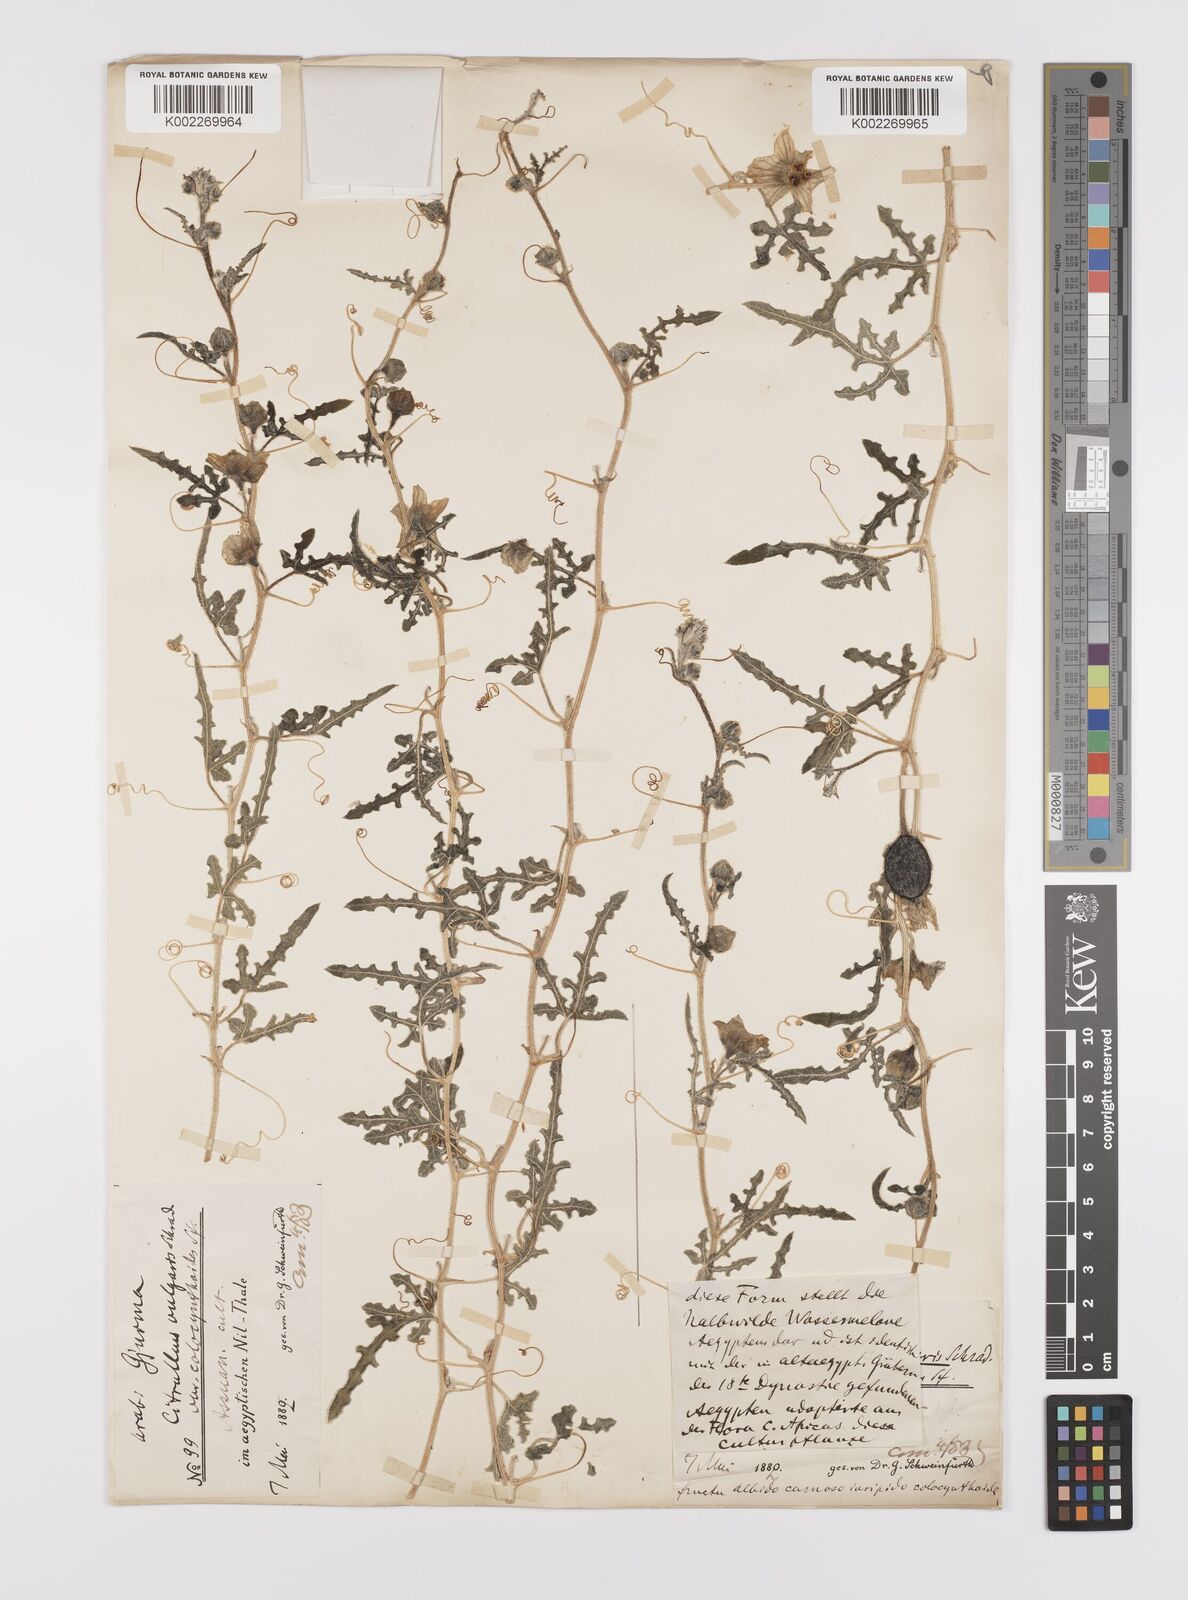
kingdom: Plantae
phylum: Tracheophyta
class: Magnoliopsida
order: Cucurbitales
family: Cucurbitaceae
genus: Citrullus
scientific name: Citrullus lanatus
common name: Watermelon
